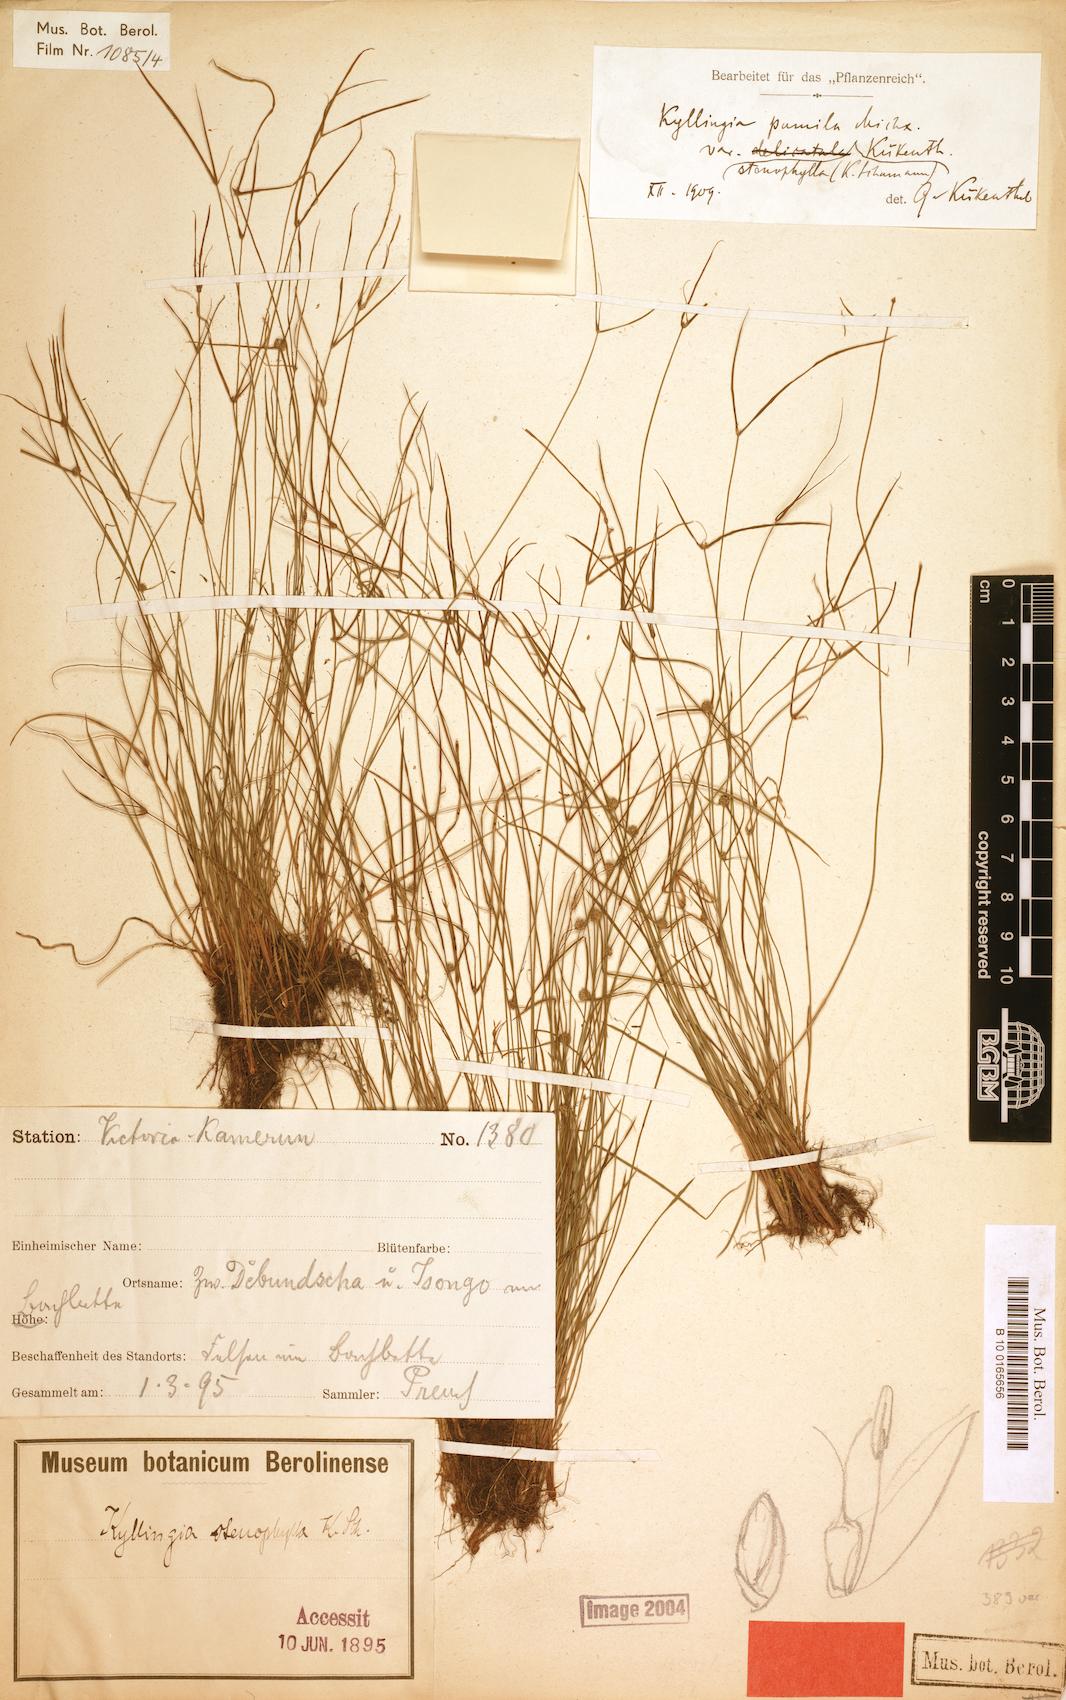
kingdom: Plantae
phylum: Tracheophyta
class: Liliopsida
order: Poales
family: Cyperaceae
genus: Cyperus
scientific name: Cyperus hortensis
